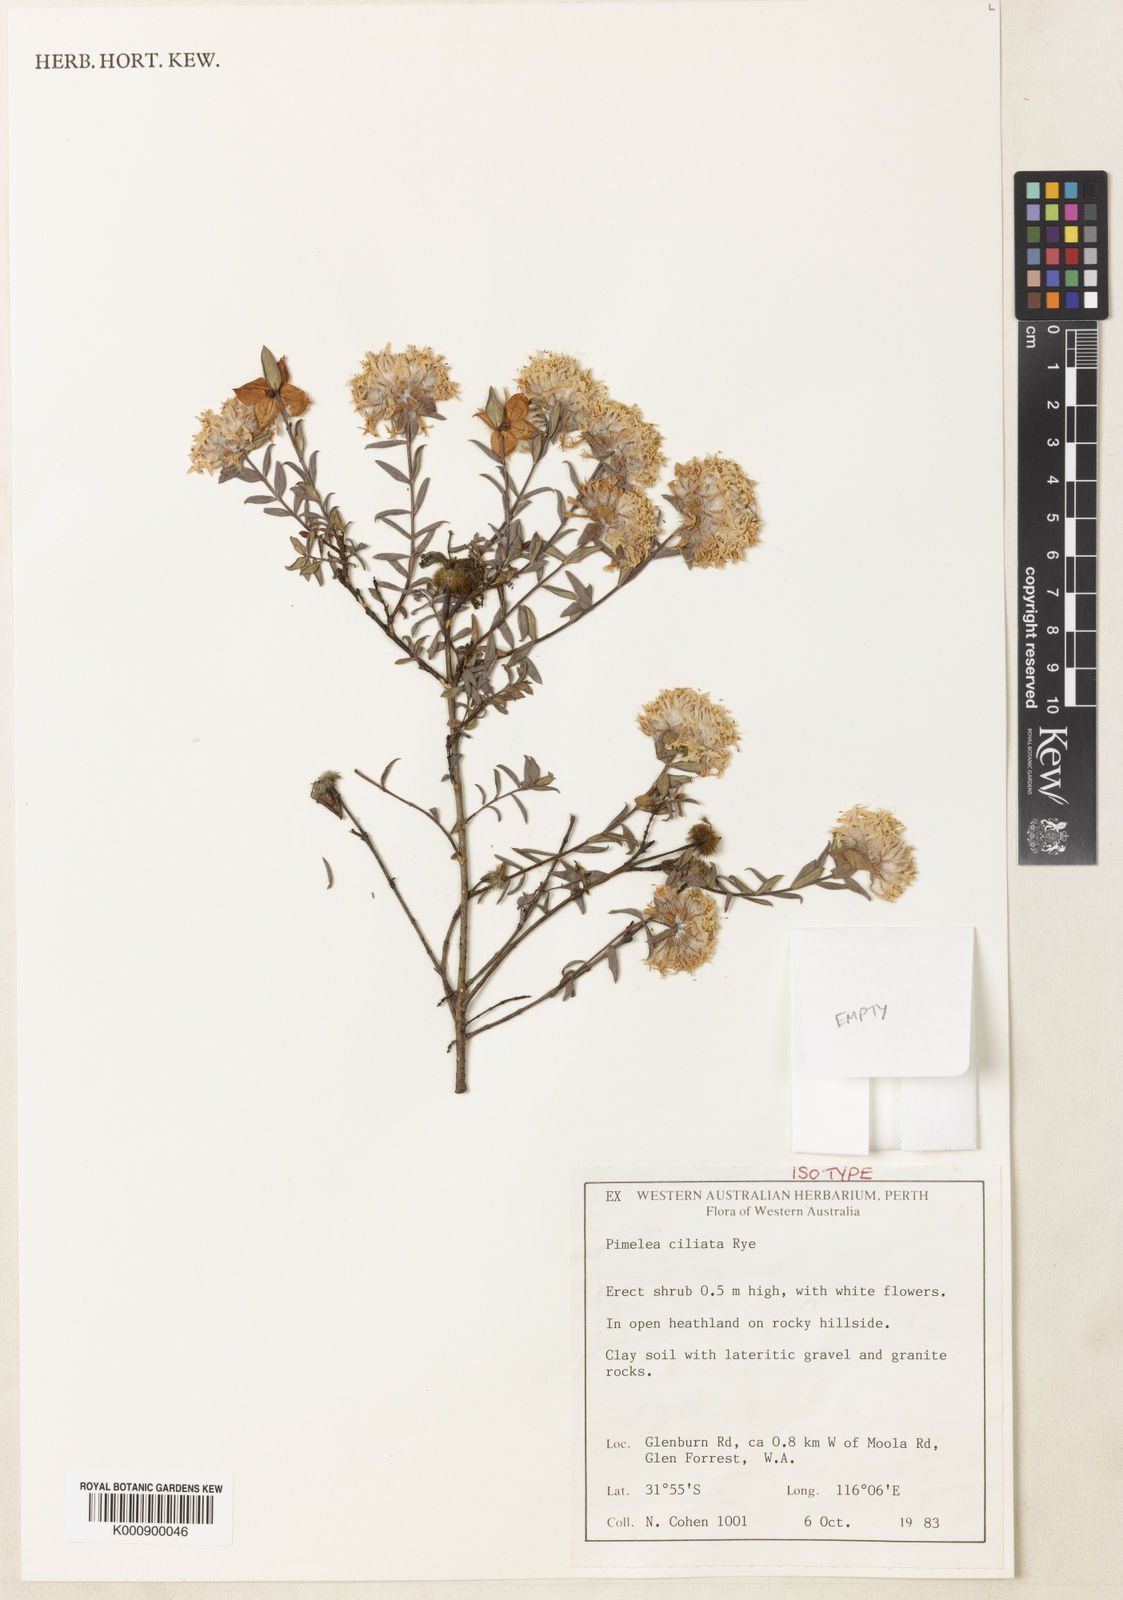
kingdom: Plantae
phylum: Tracheophyta
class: Magnoliopsida
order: Malvales
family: Thymelaeaceae
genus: Pimelea
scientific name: Pimelea ciliata
